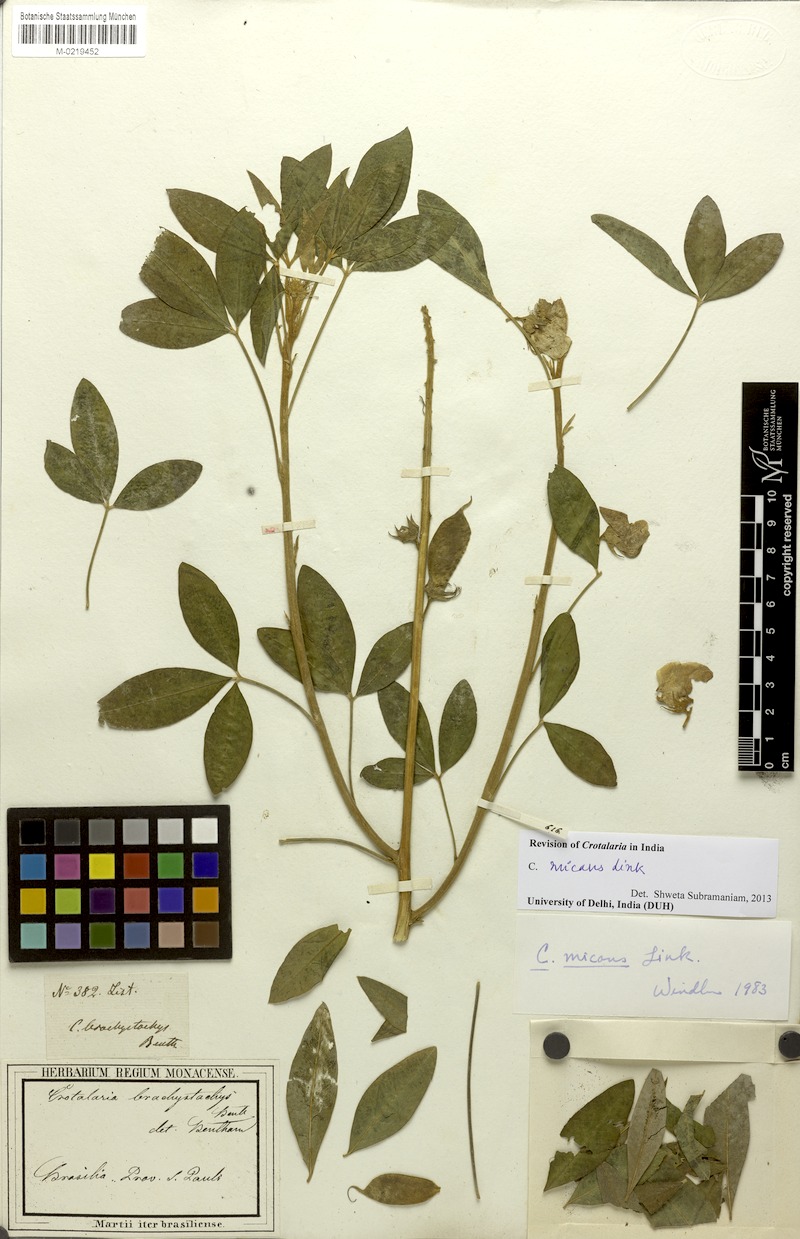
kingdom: Plantae
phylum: Tracheophyta
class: Magnoliopsida
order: Fabales
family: Fabaceae
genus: Crotalaria
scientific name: Crotalaria micans
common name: Caracas rattlebox
